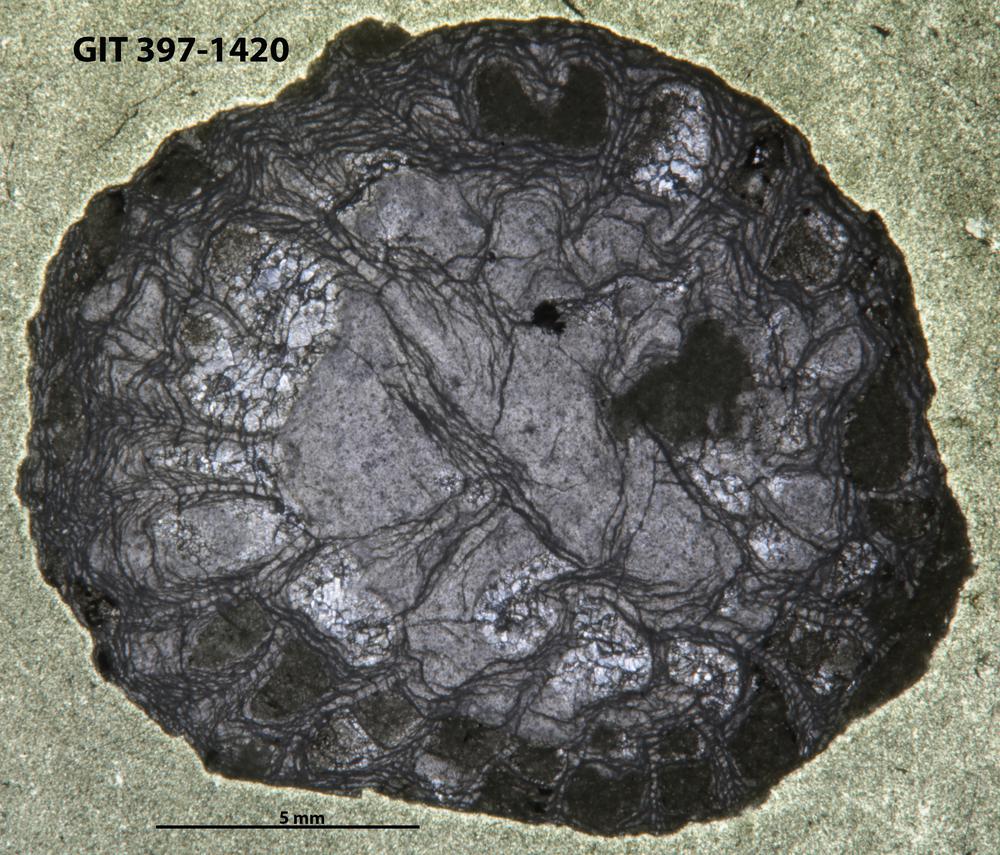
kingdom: Animalia
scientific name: Animalia
